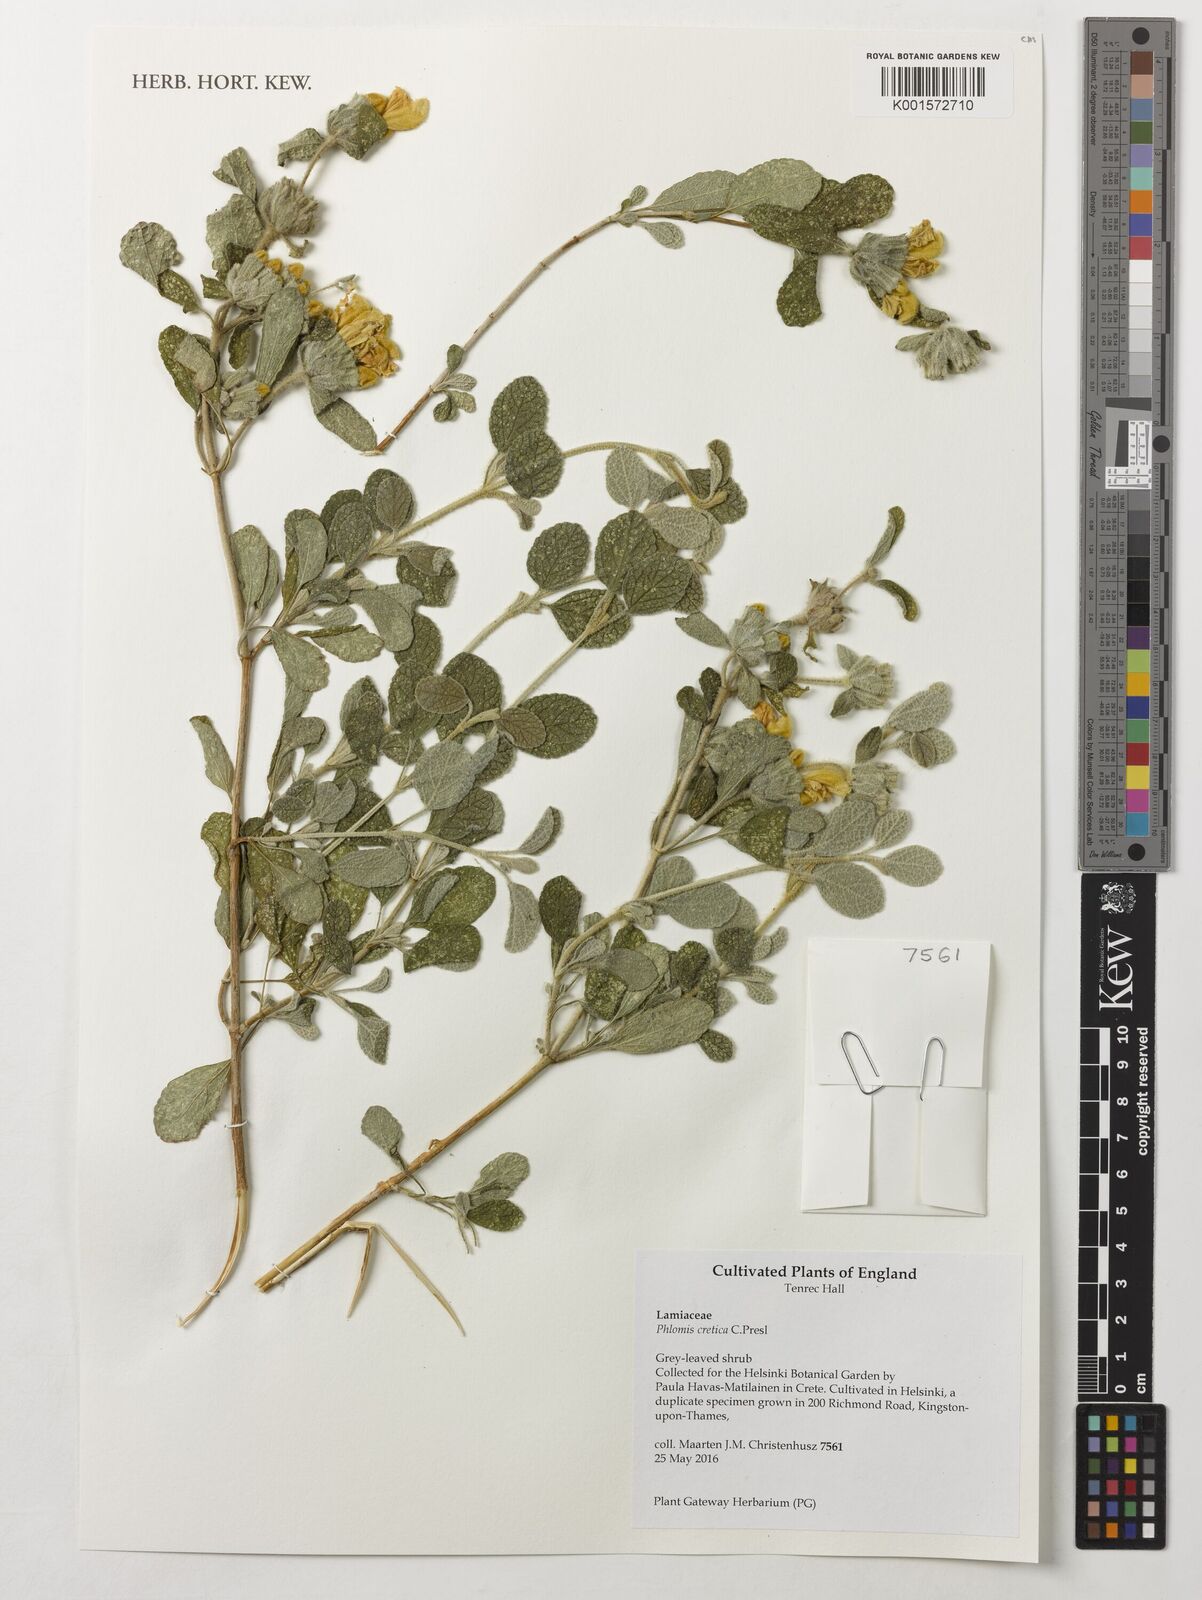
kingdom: Plantae
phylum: Tracheophyta
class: Magnoliopsida
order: Lamiales
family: Lamiaceae
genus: Phlomis
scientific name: Phlomis cretica
